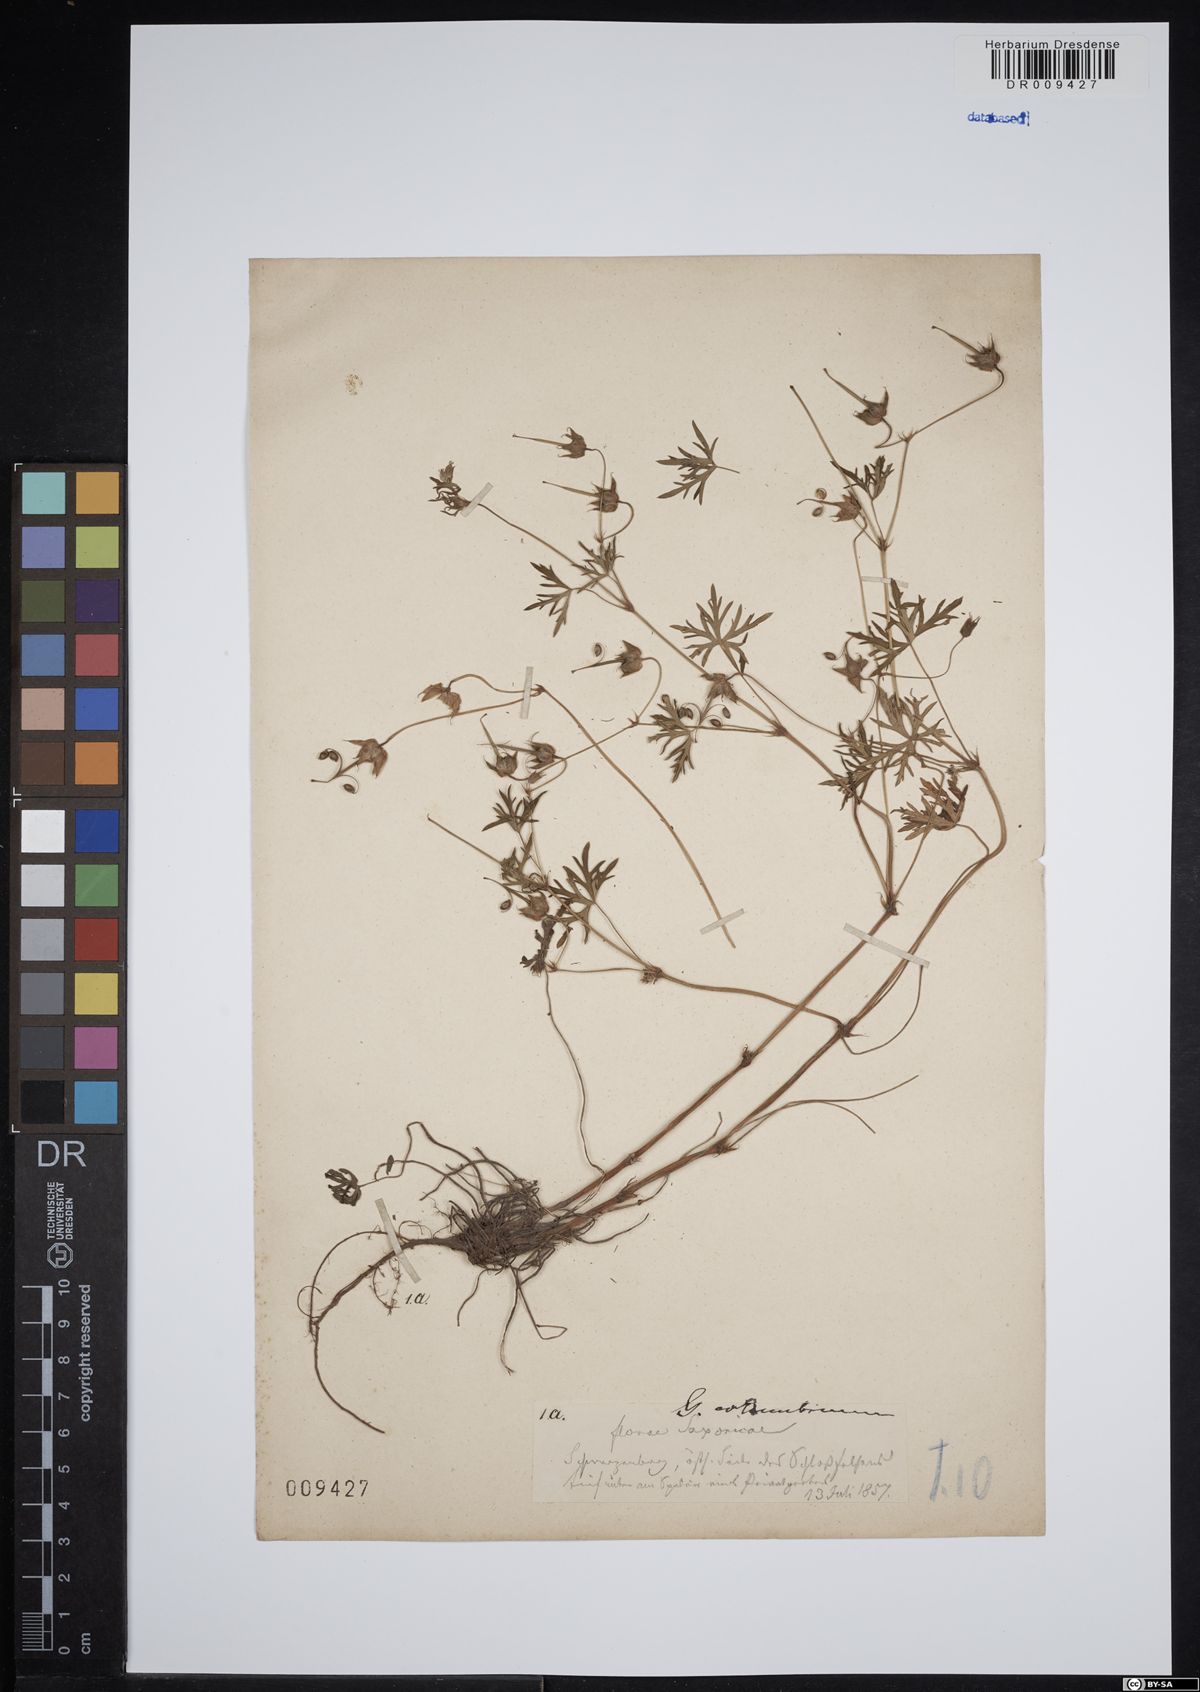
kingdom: Plantae
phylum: Tracheophyta
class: Magnoliopsida
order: Geraniales
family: Geraniaceae
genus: Geranium
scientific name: Geranium columbinum
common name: Long-stalked crane's-bill
